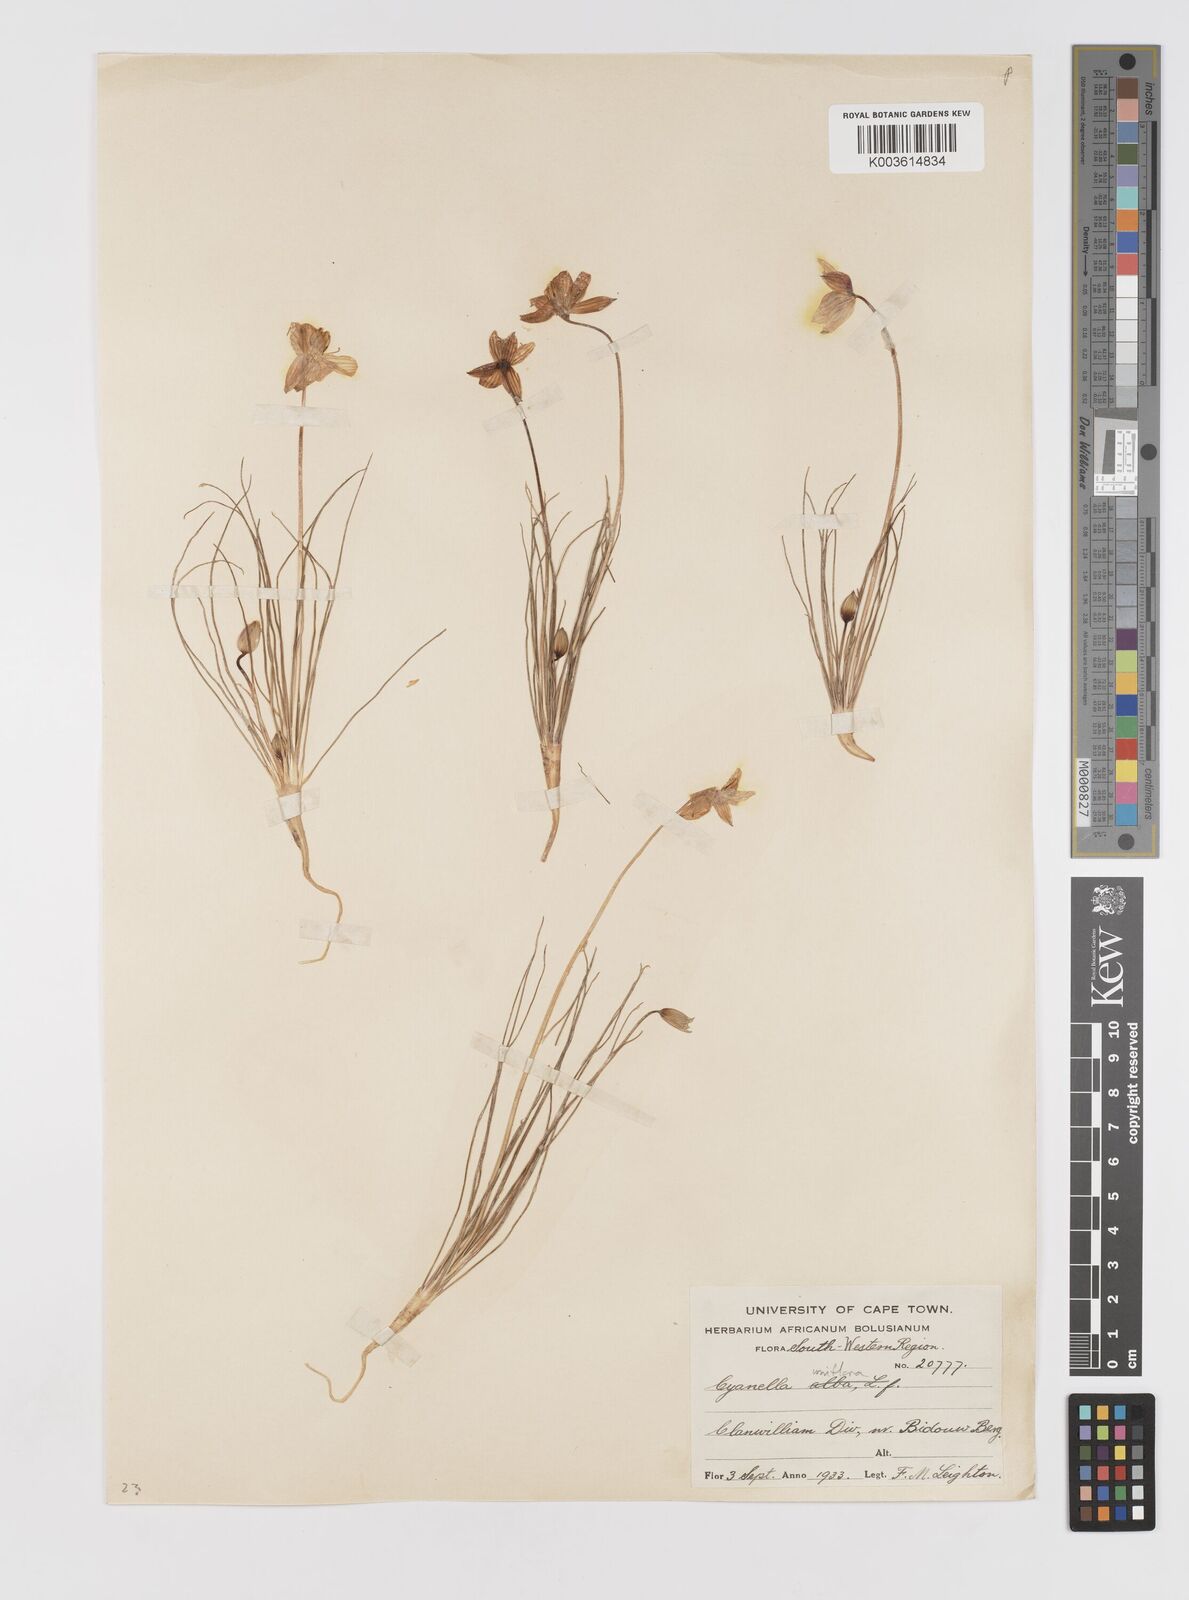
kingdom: Plantae
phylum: Tracheophyta
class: Liliopsida
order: Asparagales
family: Tecophilaeaceae
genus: Cyanella
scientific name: Cyanella
